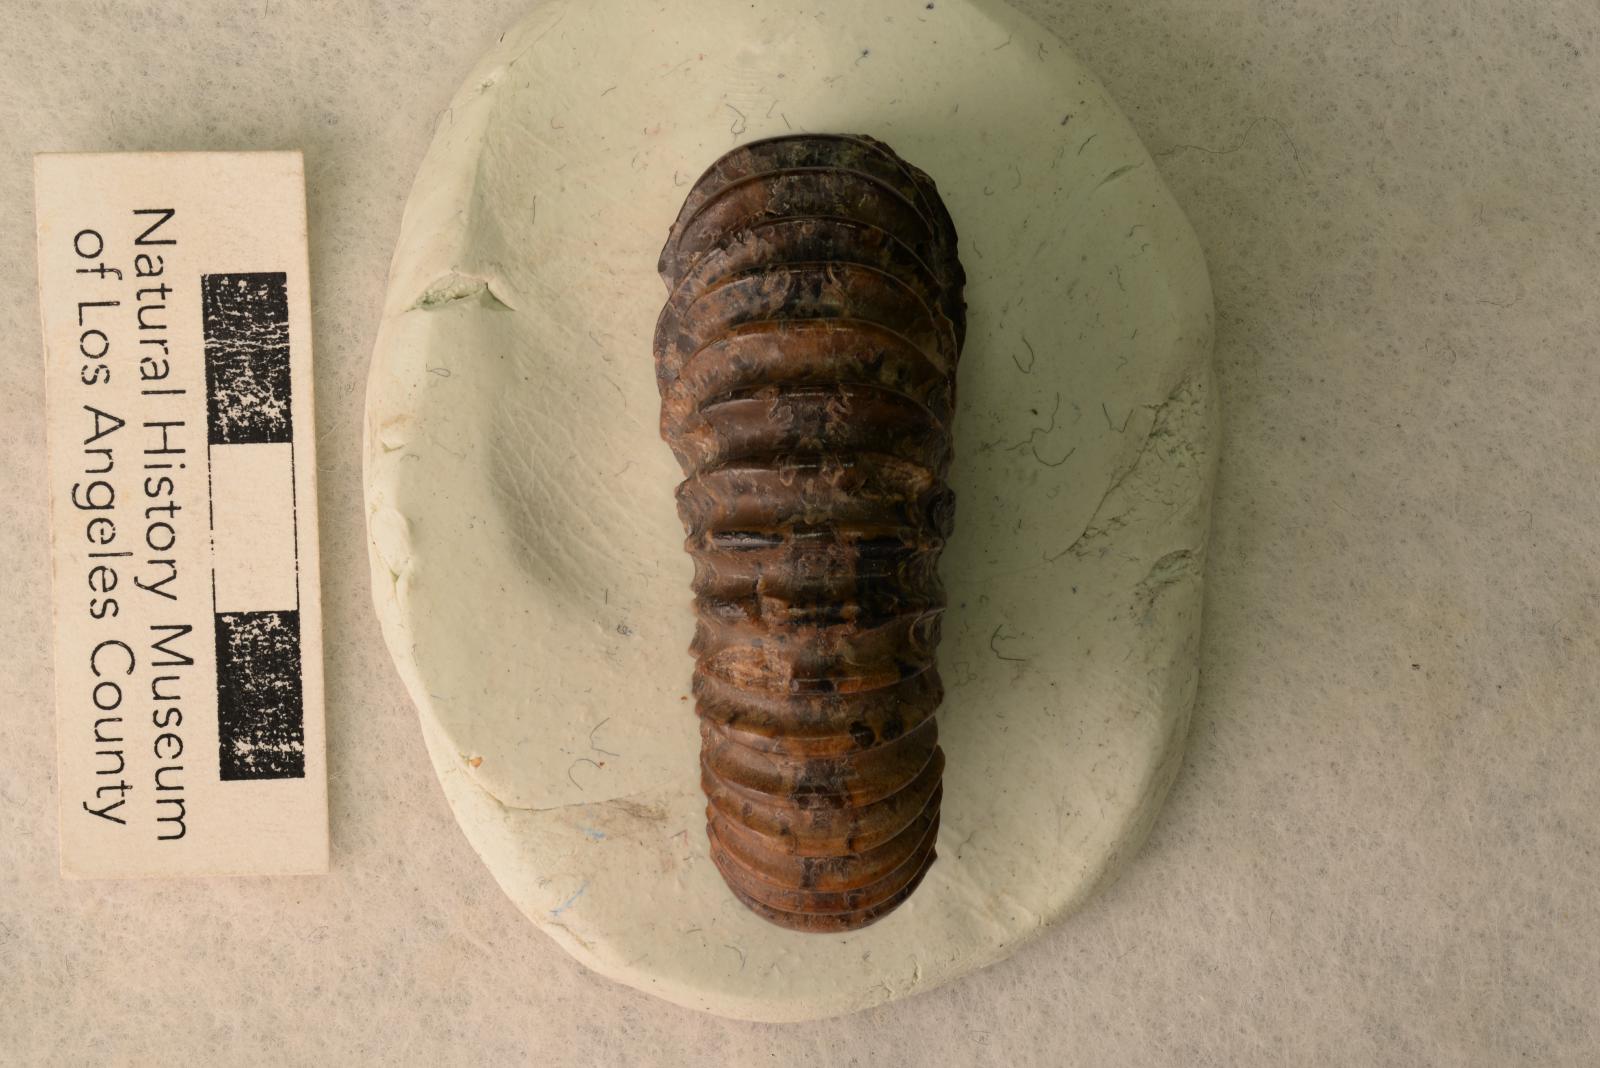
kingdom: Animalia
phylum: Mollusca
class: Cephalopoda
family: Deshayesitidae
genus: Acanthohoplites
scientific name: Acanthohoplites Acanthoplites spathi
